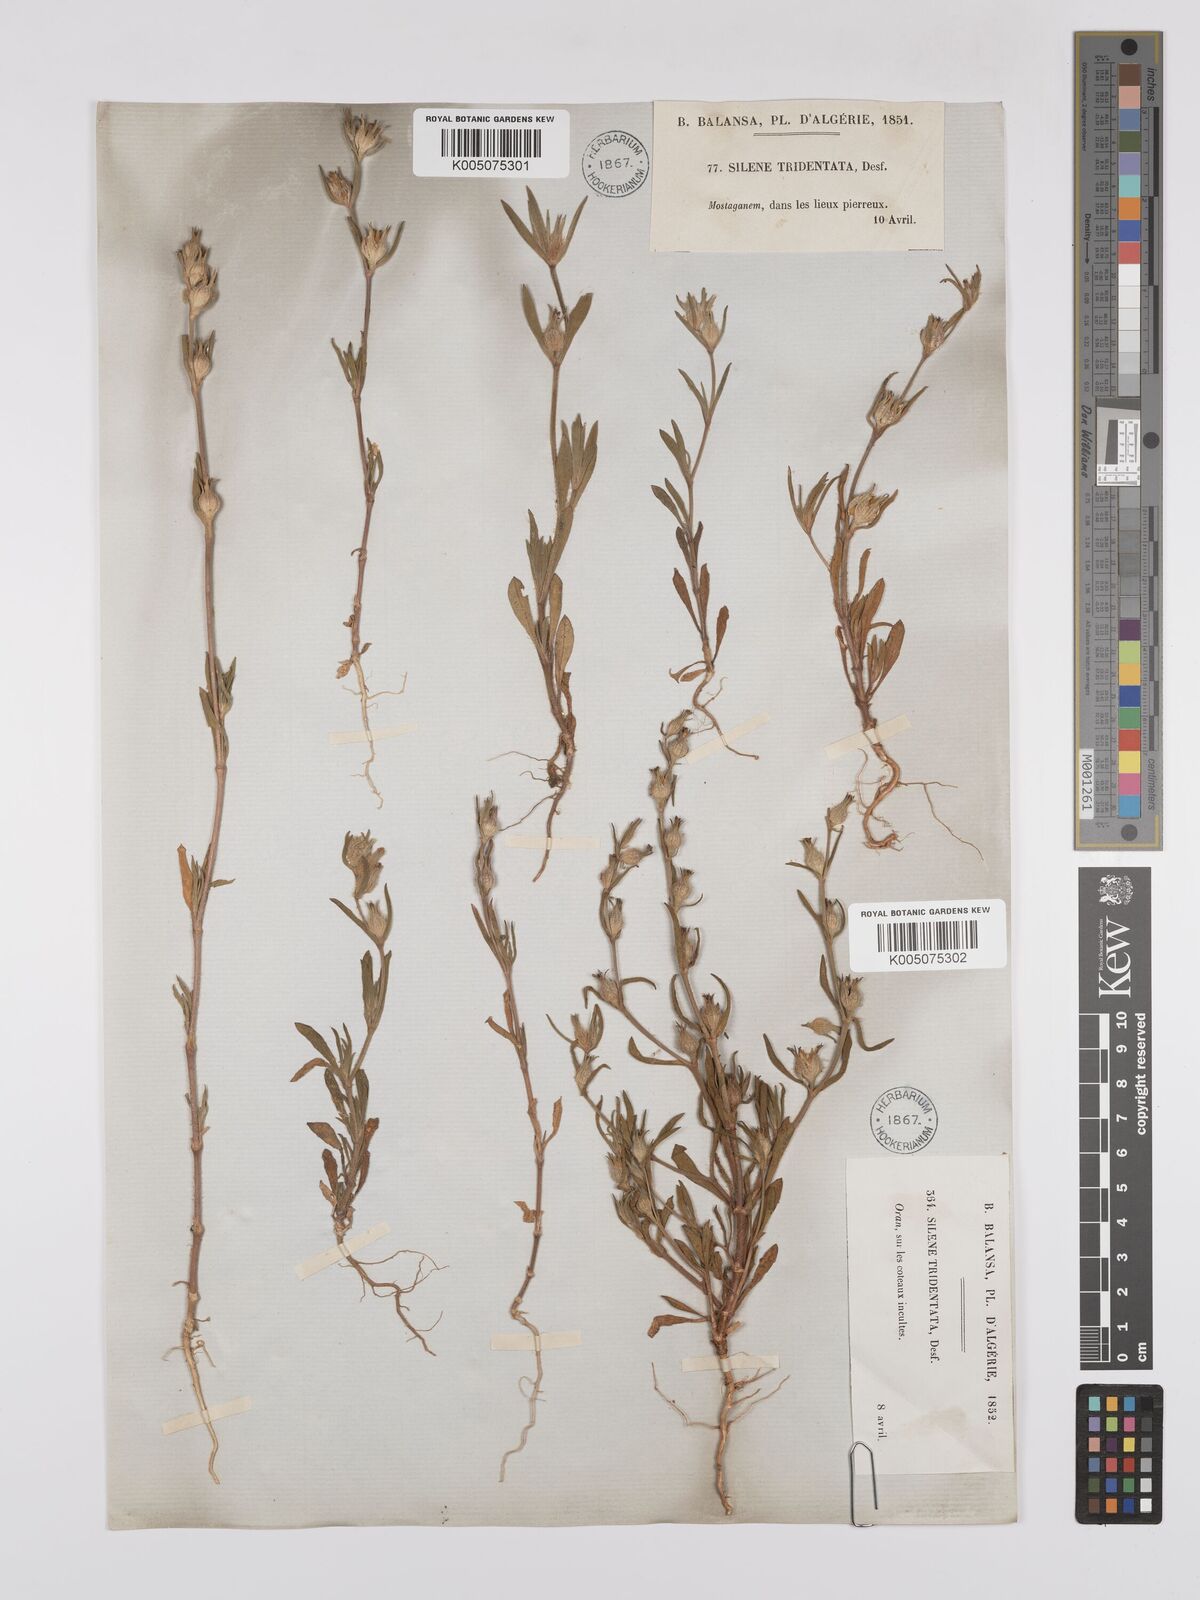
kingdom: Plantae
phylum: Tracheophyta
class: Magnoliopsida
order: Caryophyllales
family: Caryophyllaceae
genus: Silene
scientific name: Silene tridentata
